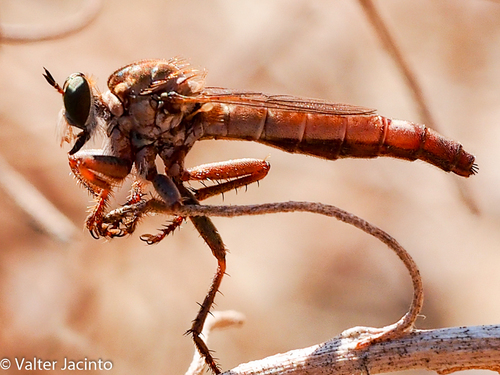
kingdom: Animalia
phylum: Arthropoda
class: Insecta
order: Diptera
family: Asilidae
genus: Stenopogon
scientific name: Stenopogon brevipennis
